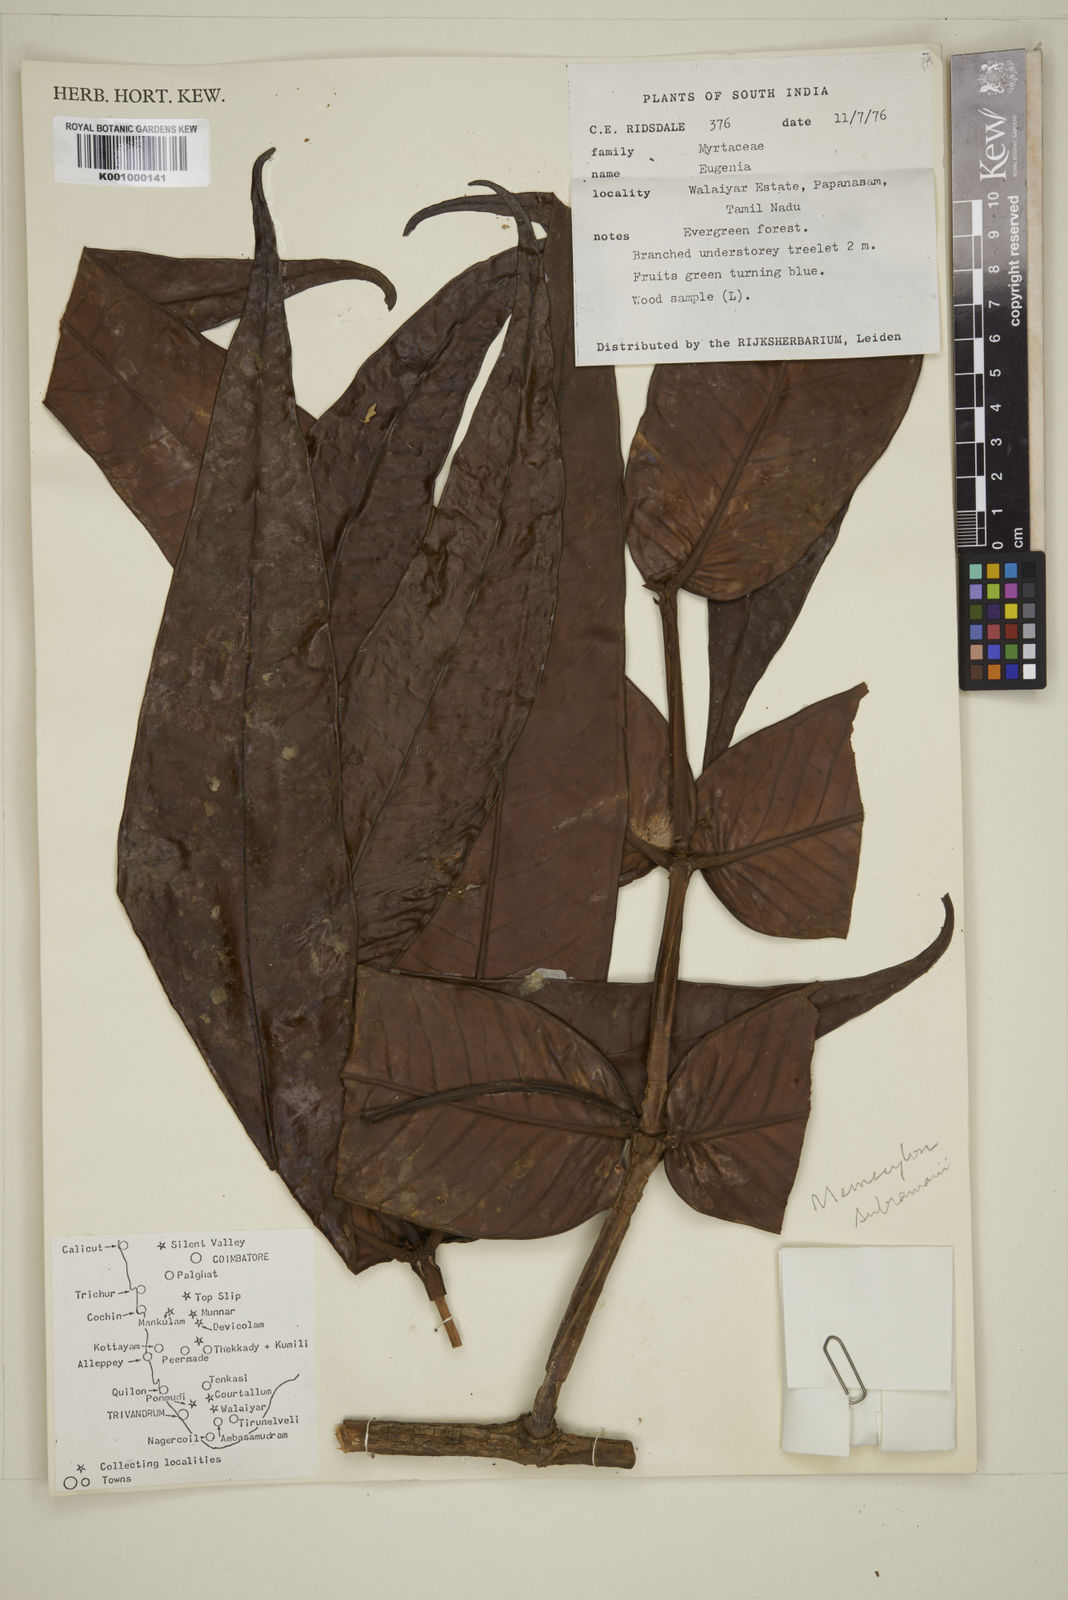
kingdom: Plantae
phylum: Tracheophyta
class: Magnoliopsida
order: Myrtales
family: Myrtaceae
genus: Eugenia
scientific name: Eugenia
